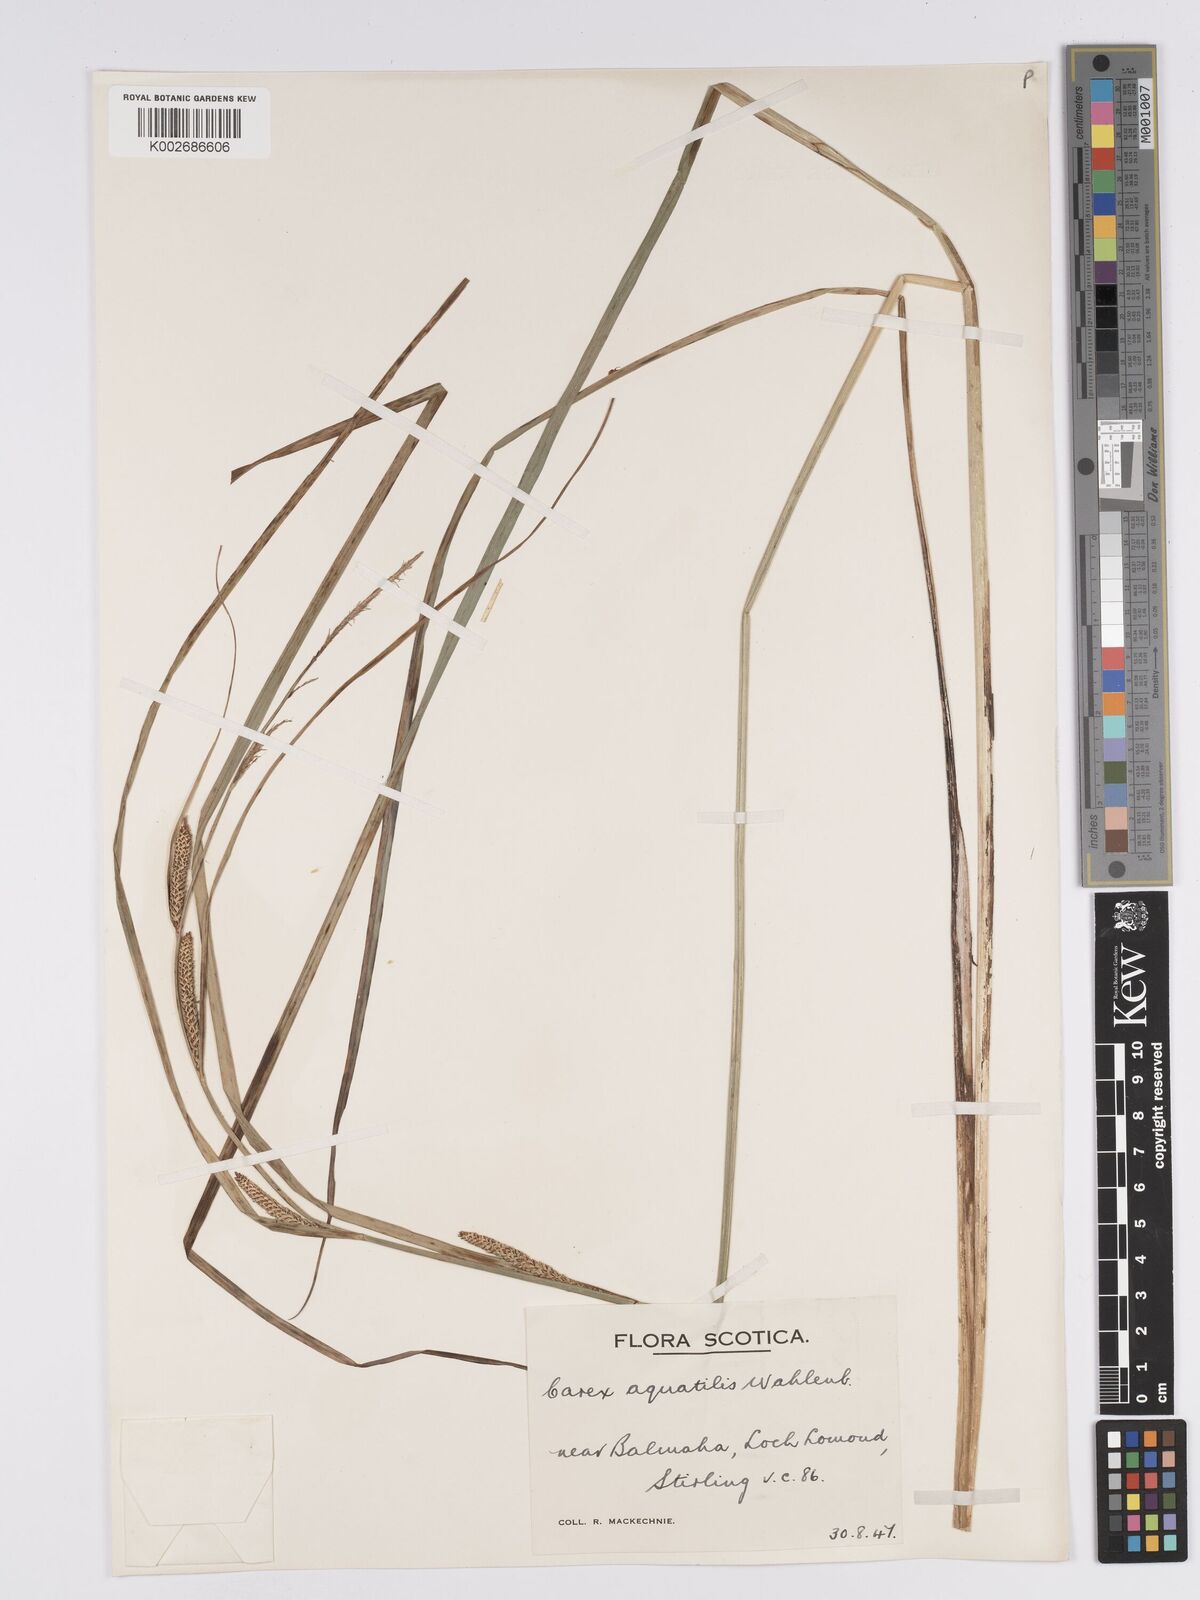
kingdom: Plantae
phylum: Tracheophyta
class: Liliopsida
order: Poales
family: Cyperaceae
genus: Carex
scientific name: Carex aquatilis
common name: Water sedge
